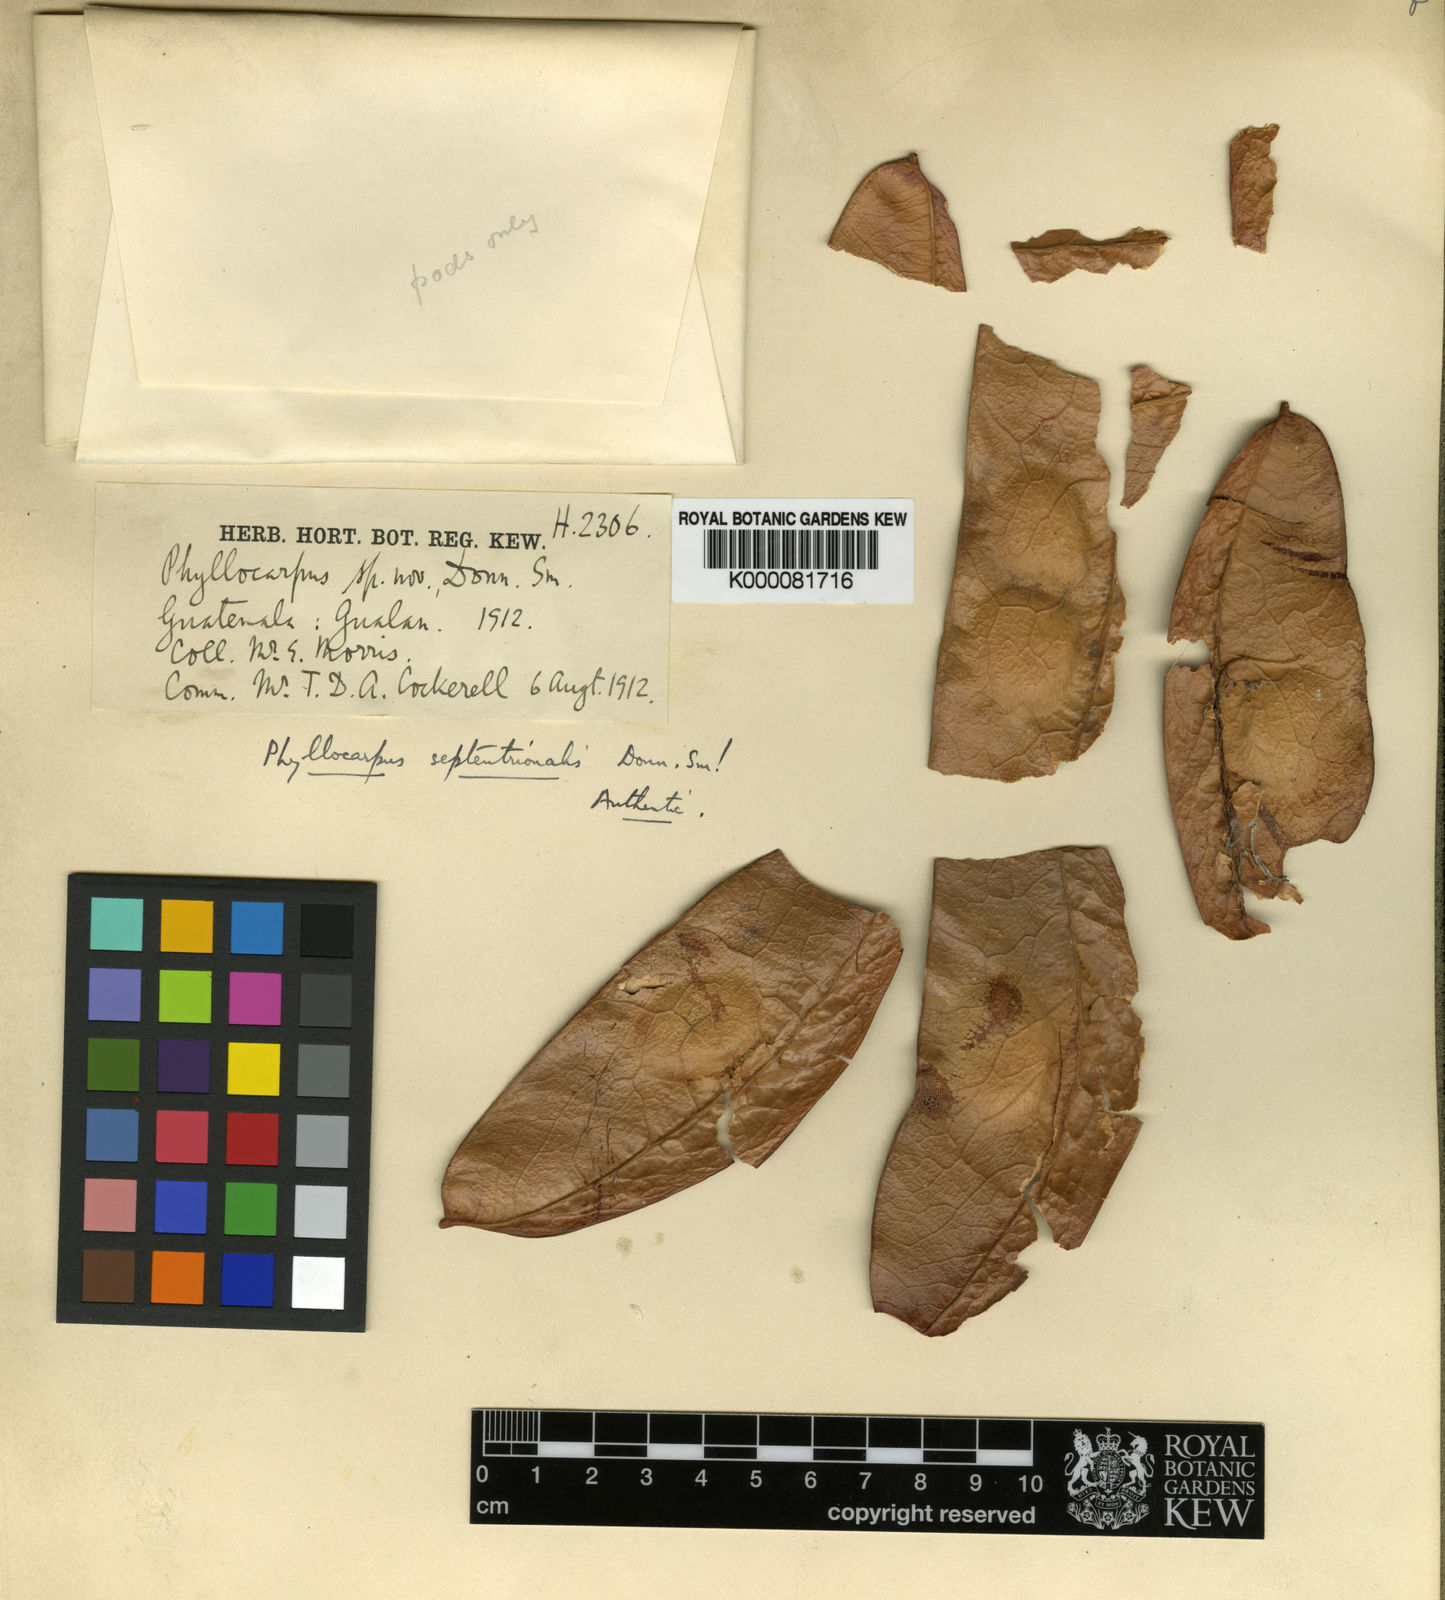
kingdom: Plantae
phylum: Tracheophyta
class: Magnoliopsida
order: Fabales
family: Fabaceae
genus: Barnebydendron
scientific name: Barnebydendron riedelii
